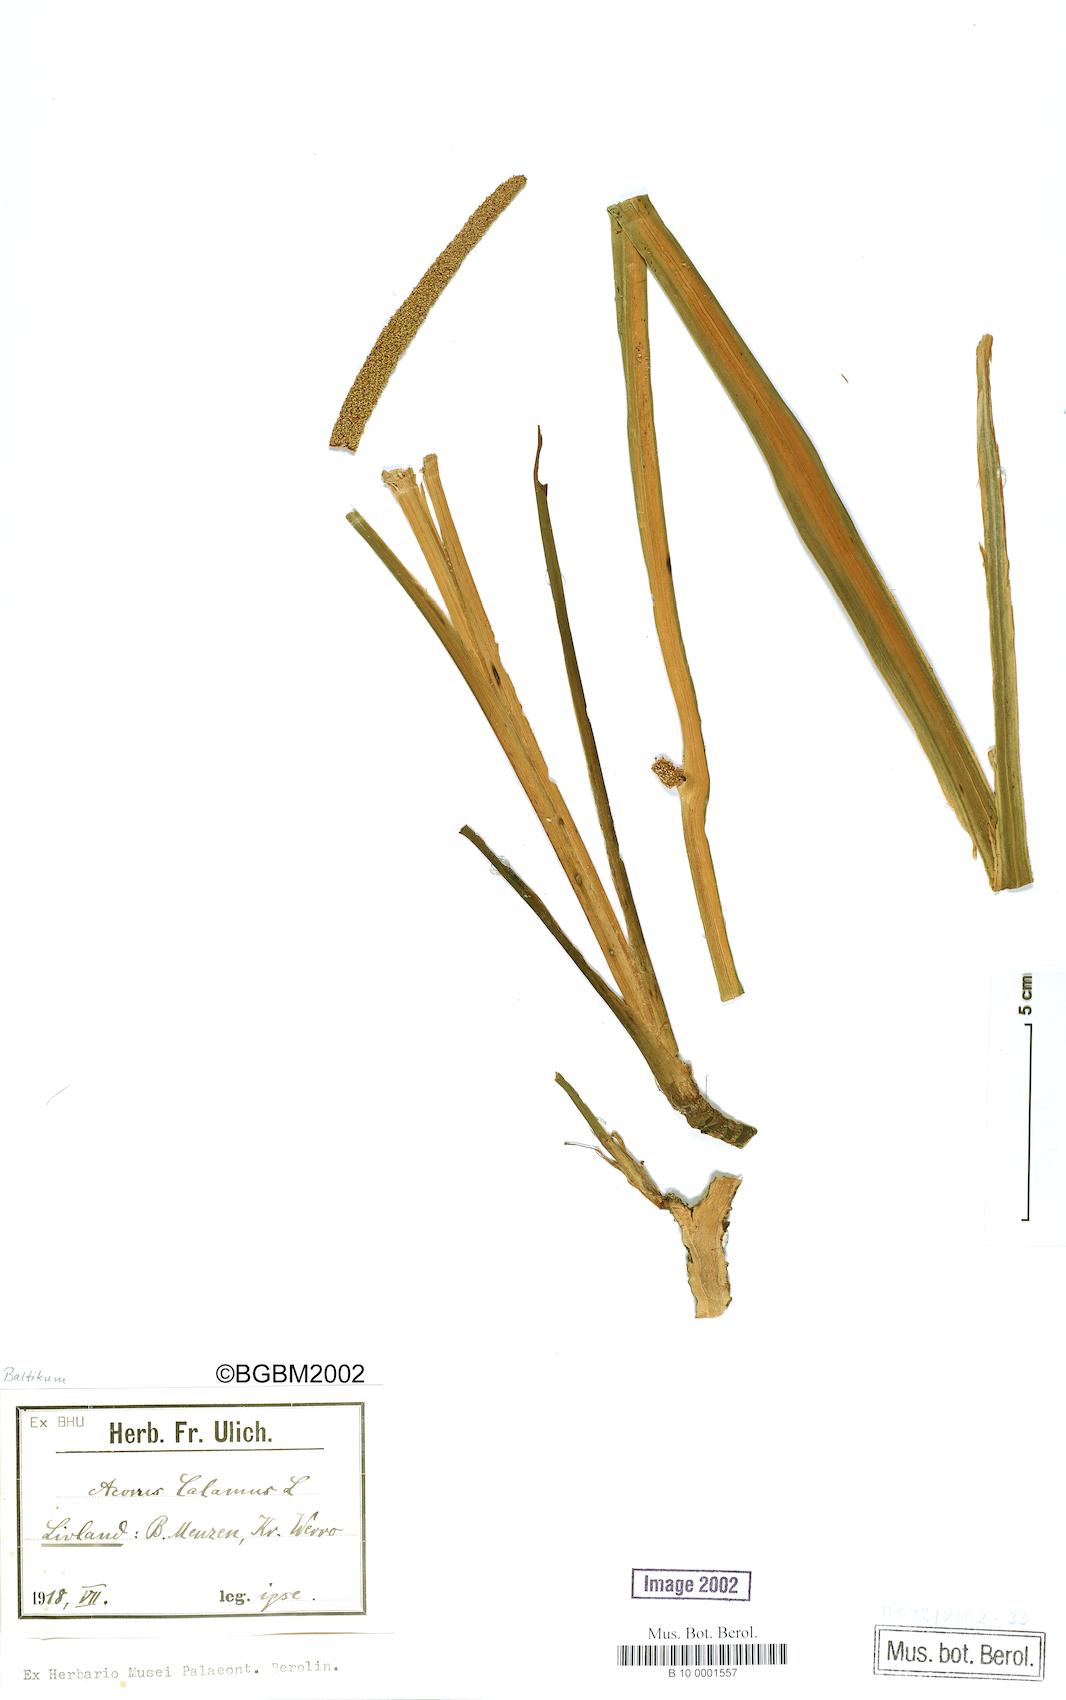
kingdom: Plantae
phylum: Tracheophyta
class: Liliopsida
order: Acorales
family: Acoraceae
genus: Acorus
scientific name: Acorus calamus
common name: Sweet-flag
